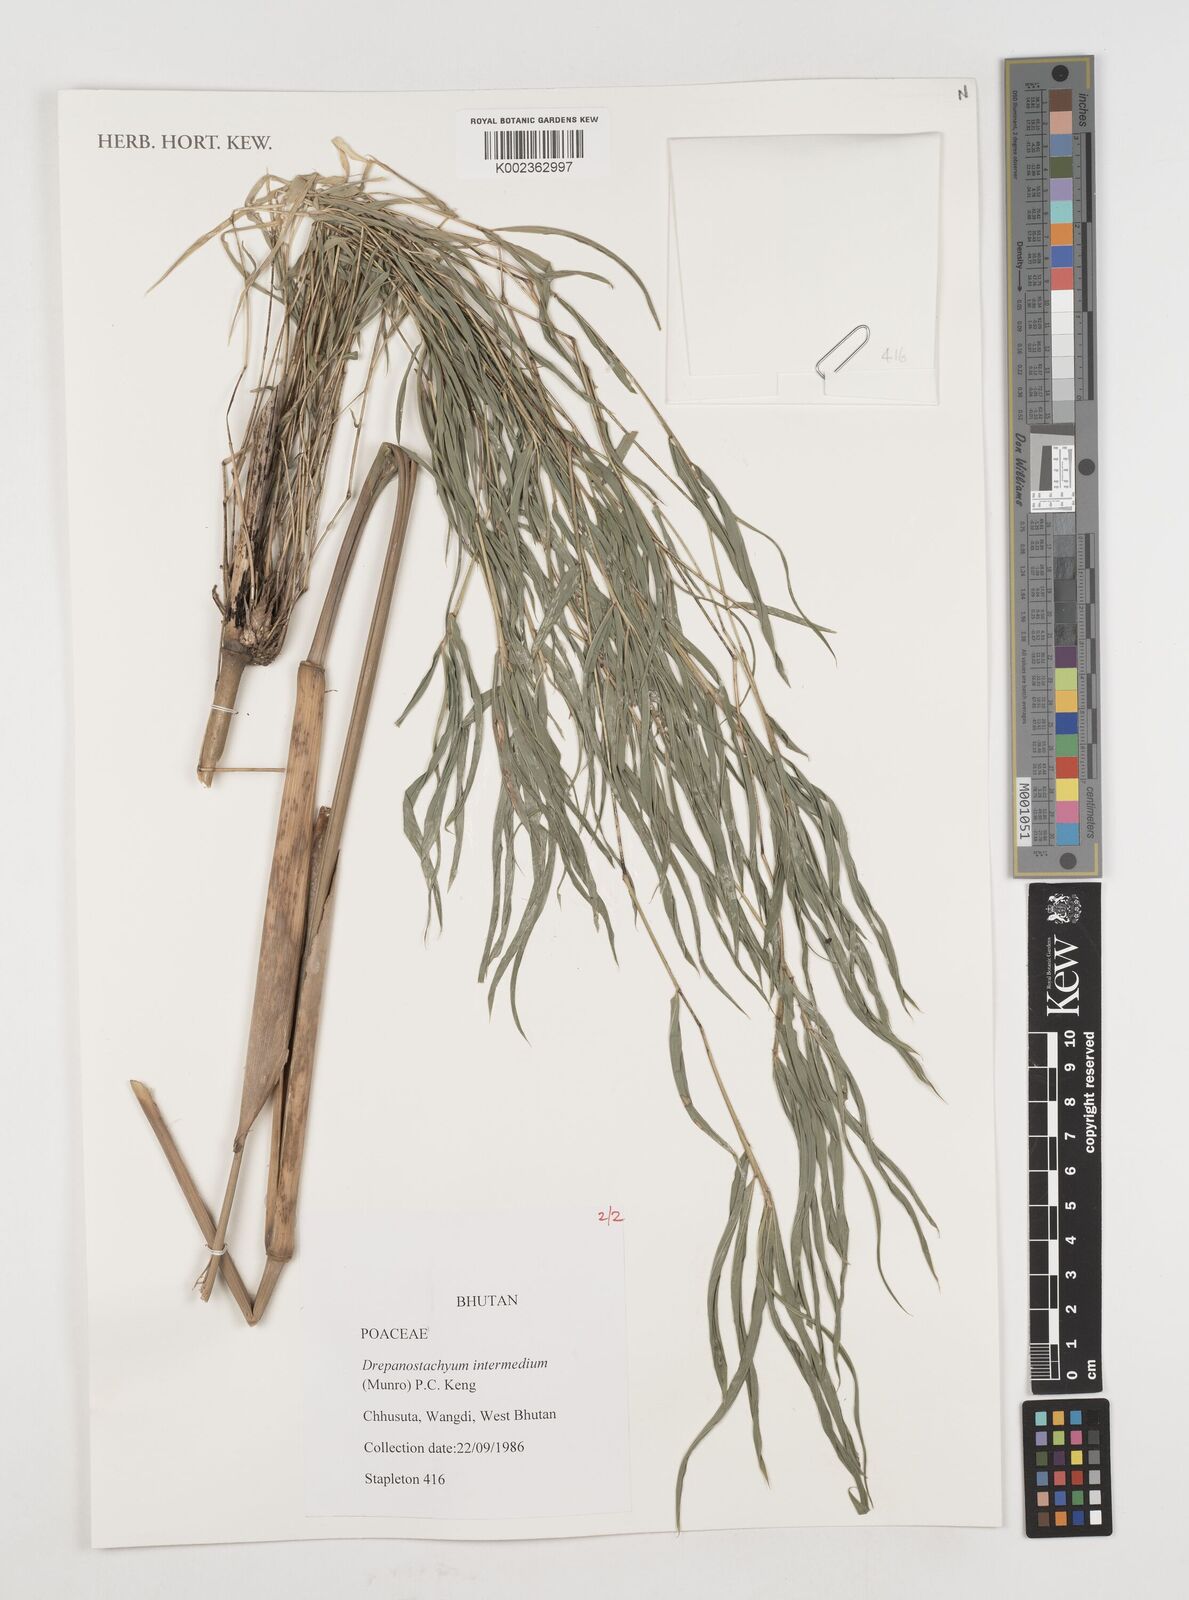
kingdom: Plantae
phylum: Tracheophyta
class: Liliopsida
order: Poales
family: Poaceae
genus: Drepanostachyum
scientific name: Drepanostachyum intermedium
